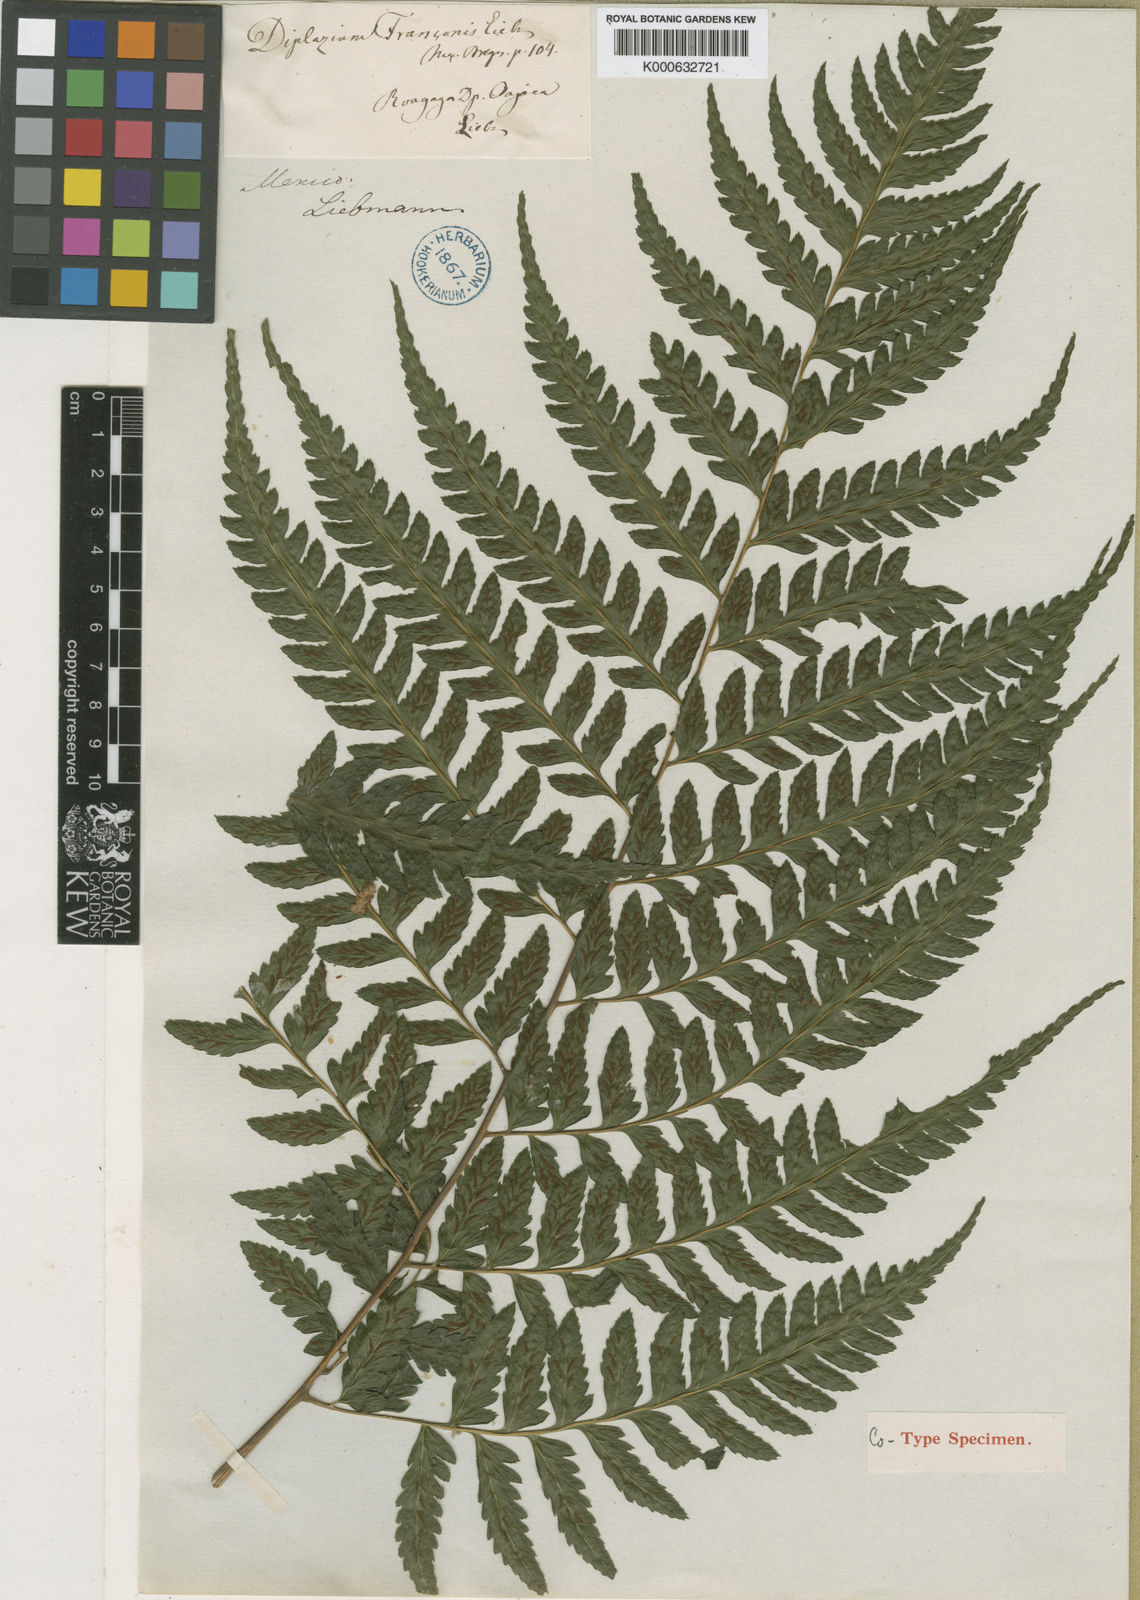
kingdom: Plantae
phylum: Tracheophyta
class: Polypodiopsida
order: Polypodiales
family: Athyriaceae
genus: Diplazium
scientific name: Diplazium franconis
